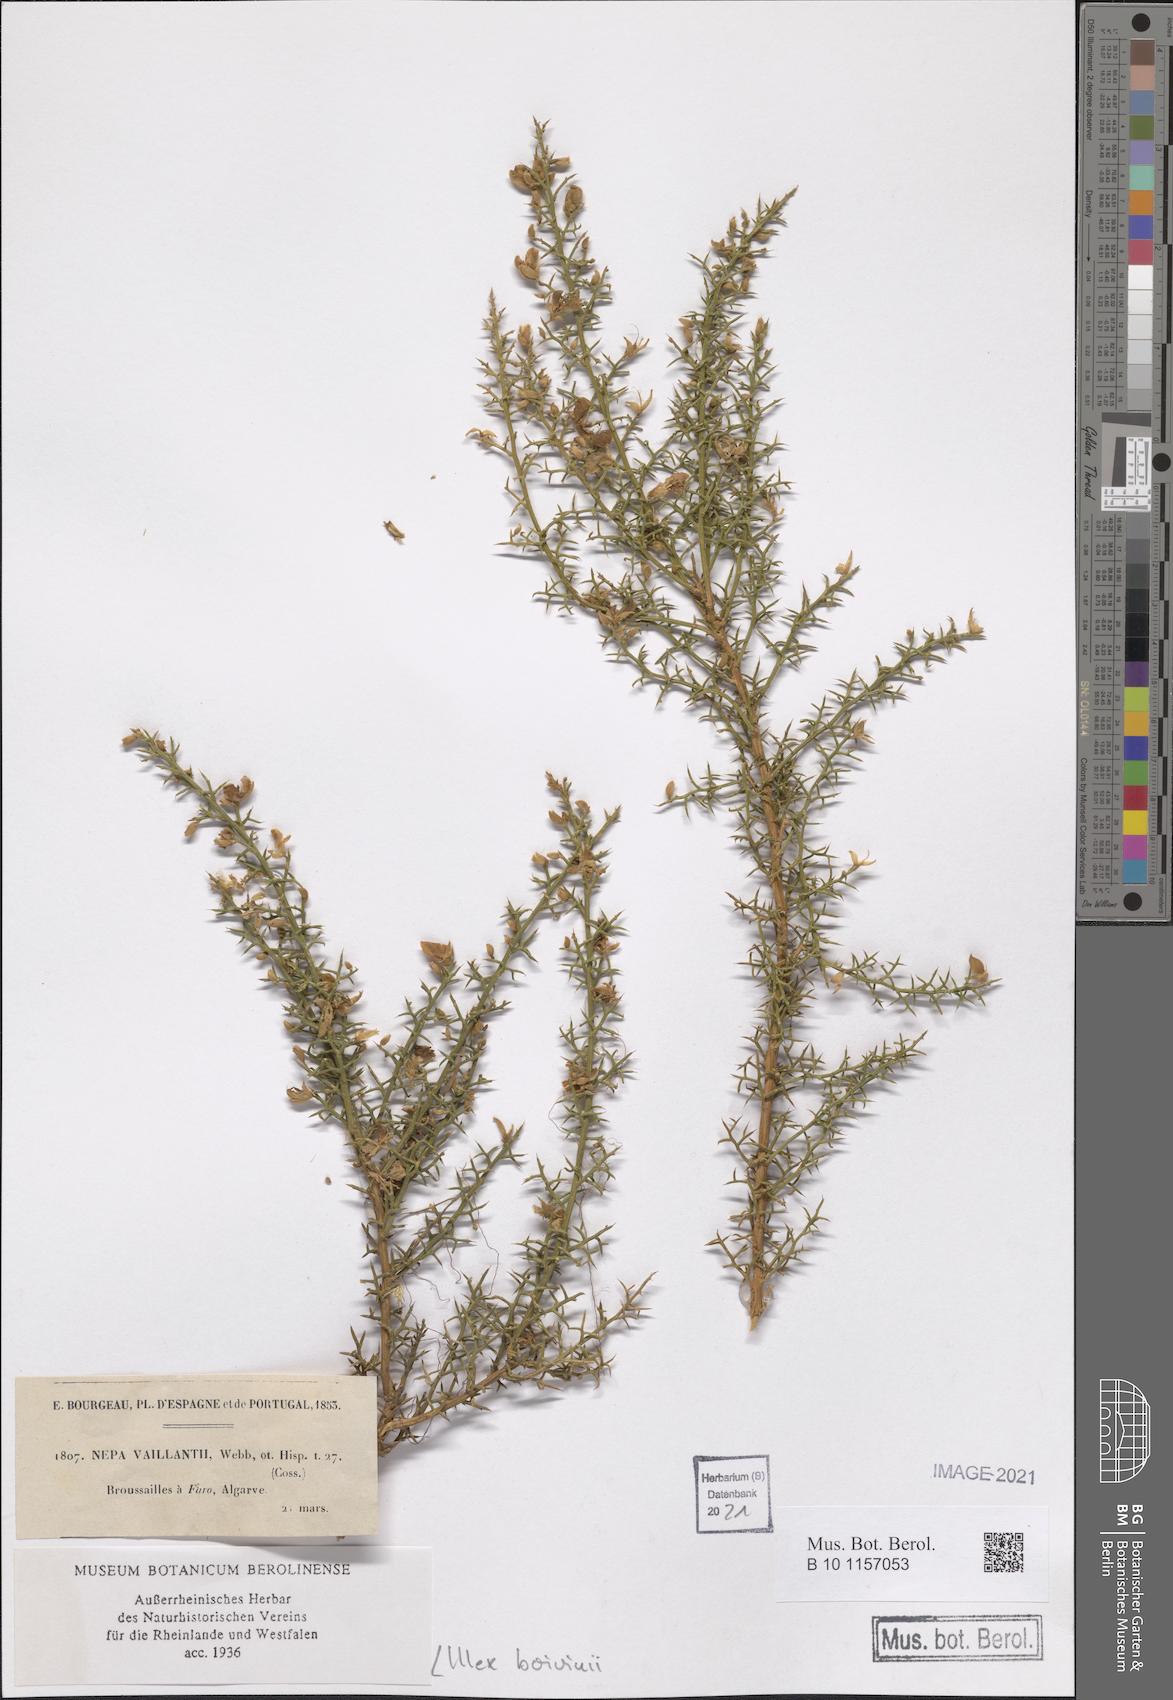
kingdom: Plantae
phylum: Tracheophyta
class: Magnoliopsida
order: Fabales
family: Fabaceae
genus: Stauracanthus
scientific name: Stauracanthus boivinii
